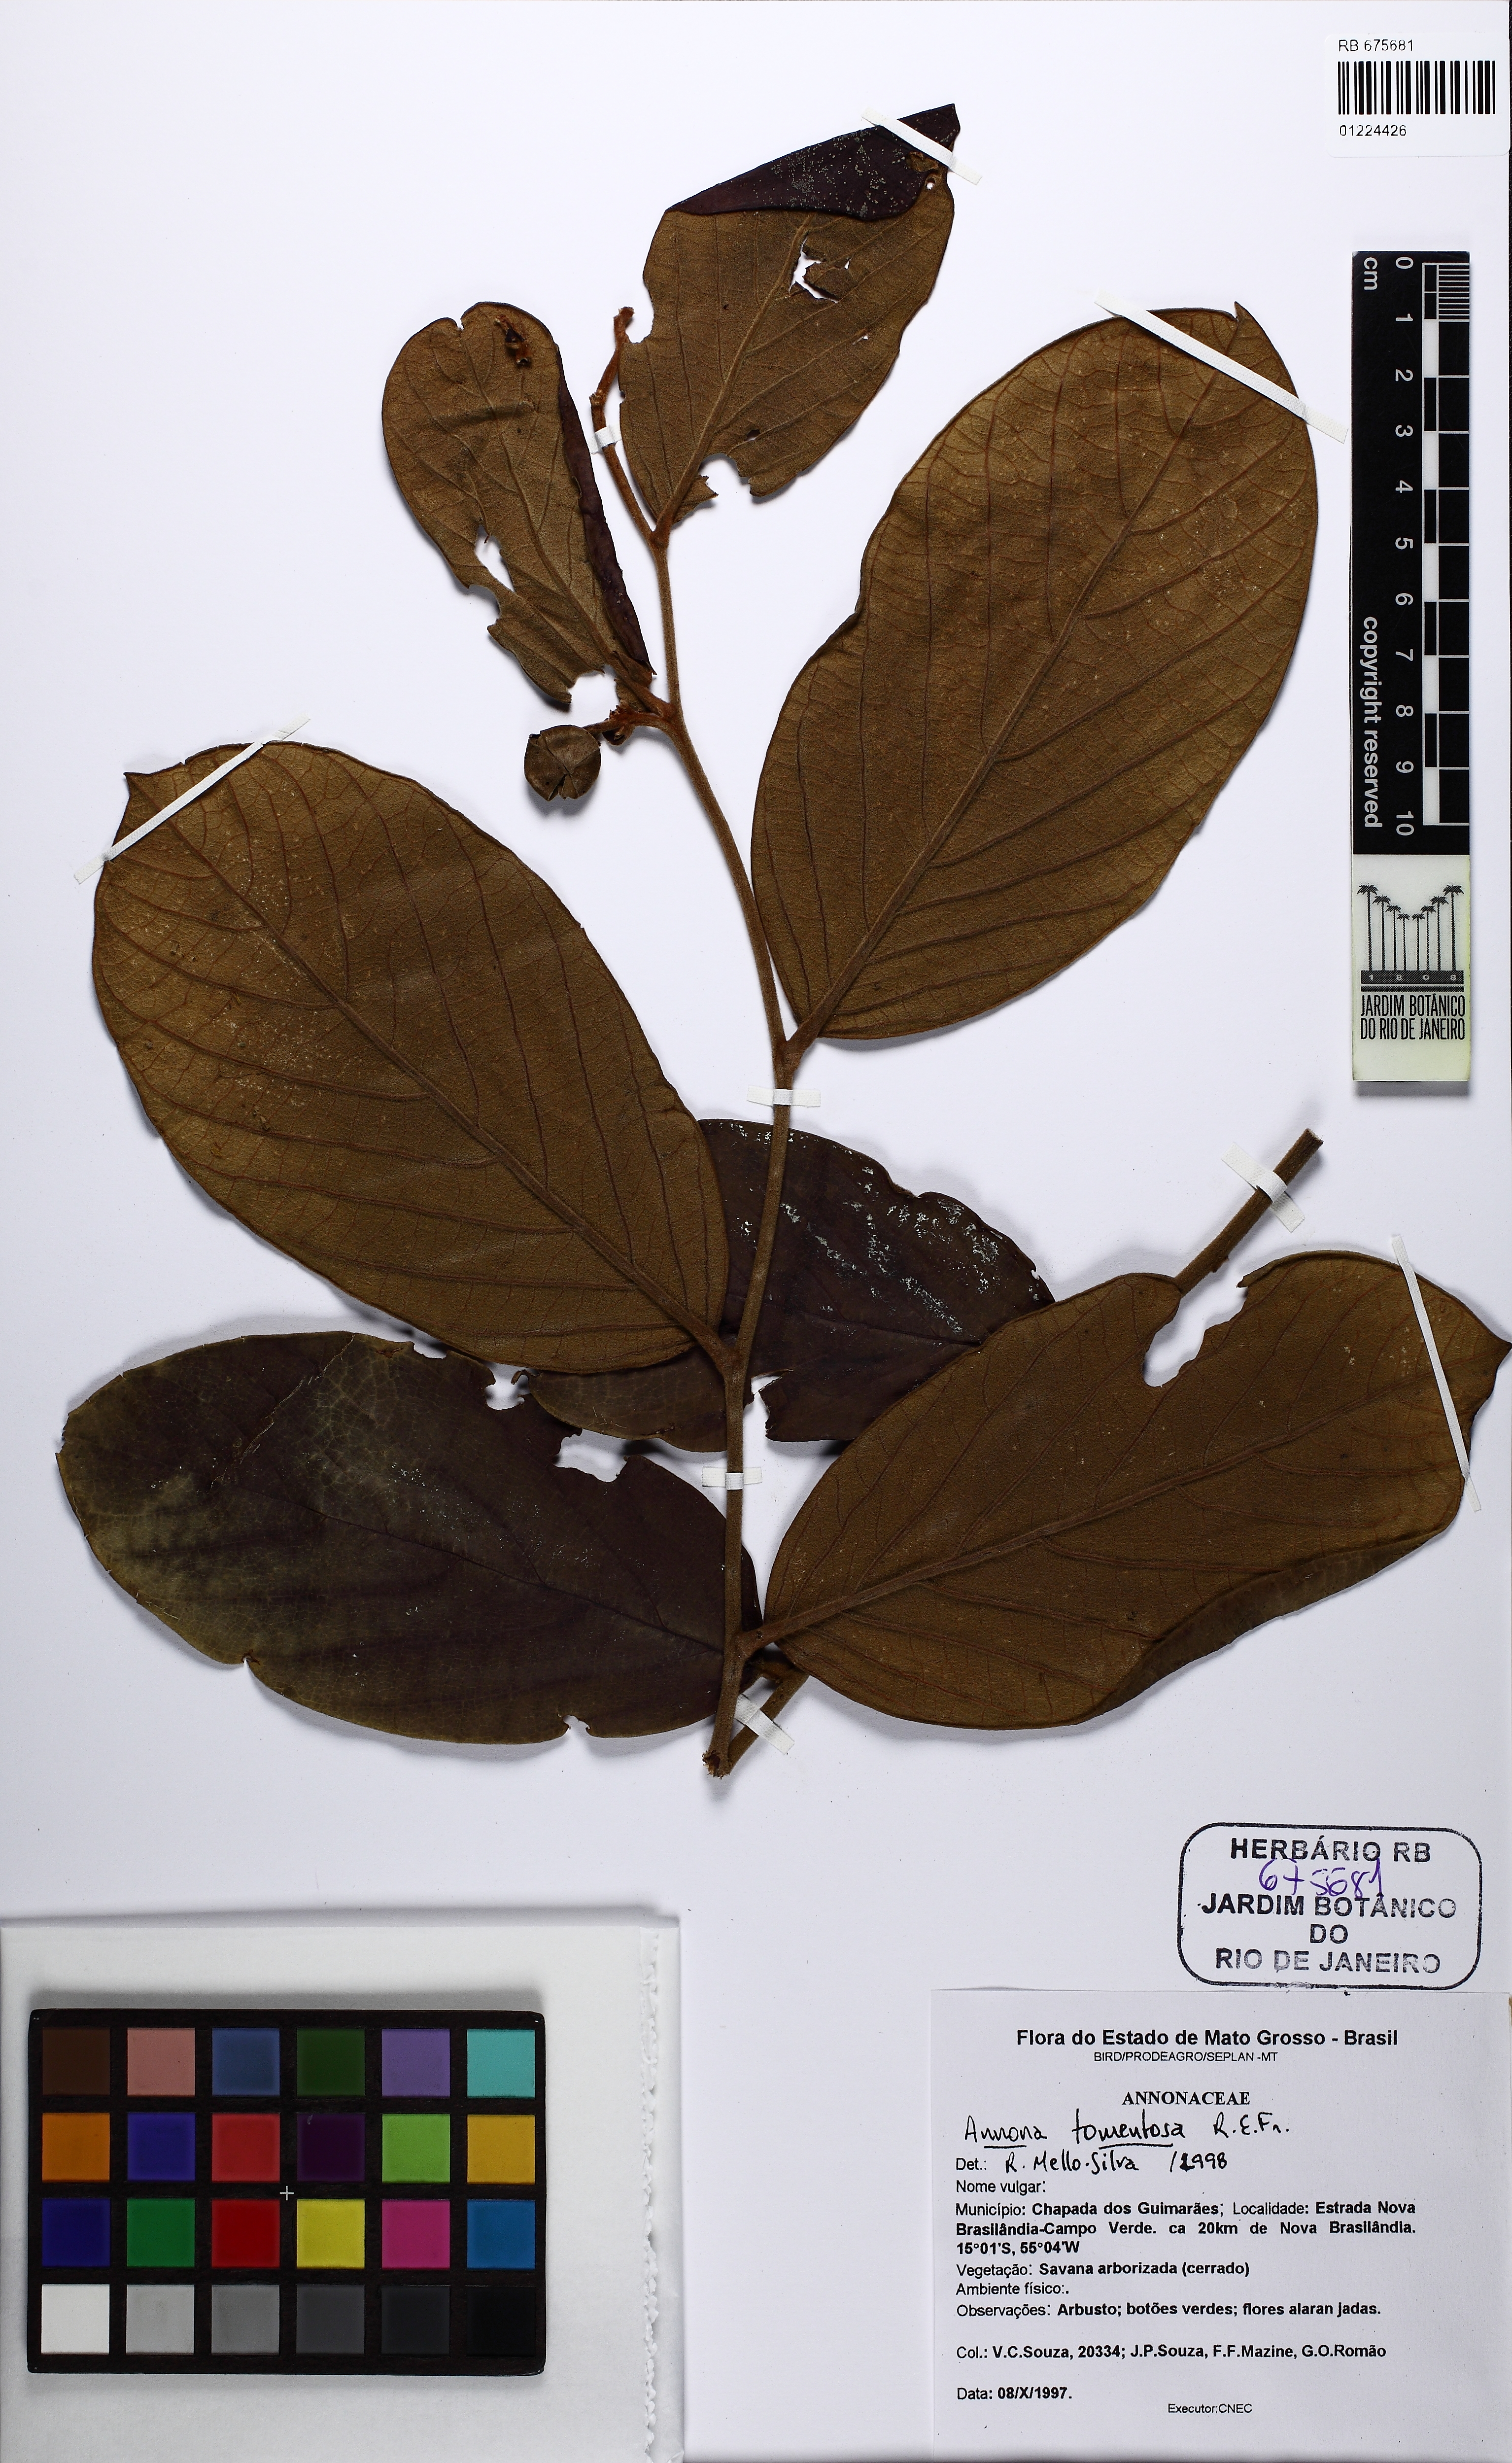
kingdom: Plantae
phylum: Tracheophyta
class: Magnoliopsida
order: Magnoliales
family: Annonaceae
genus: Annona
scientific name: Annona tomentosa
